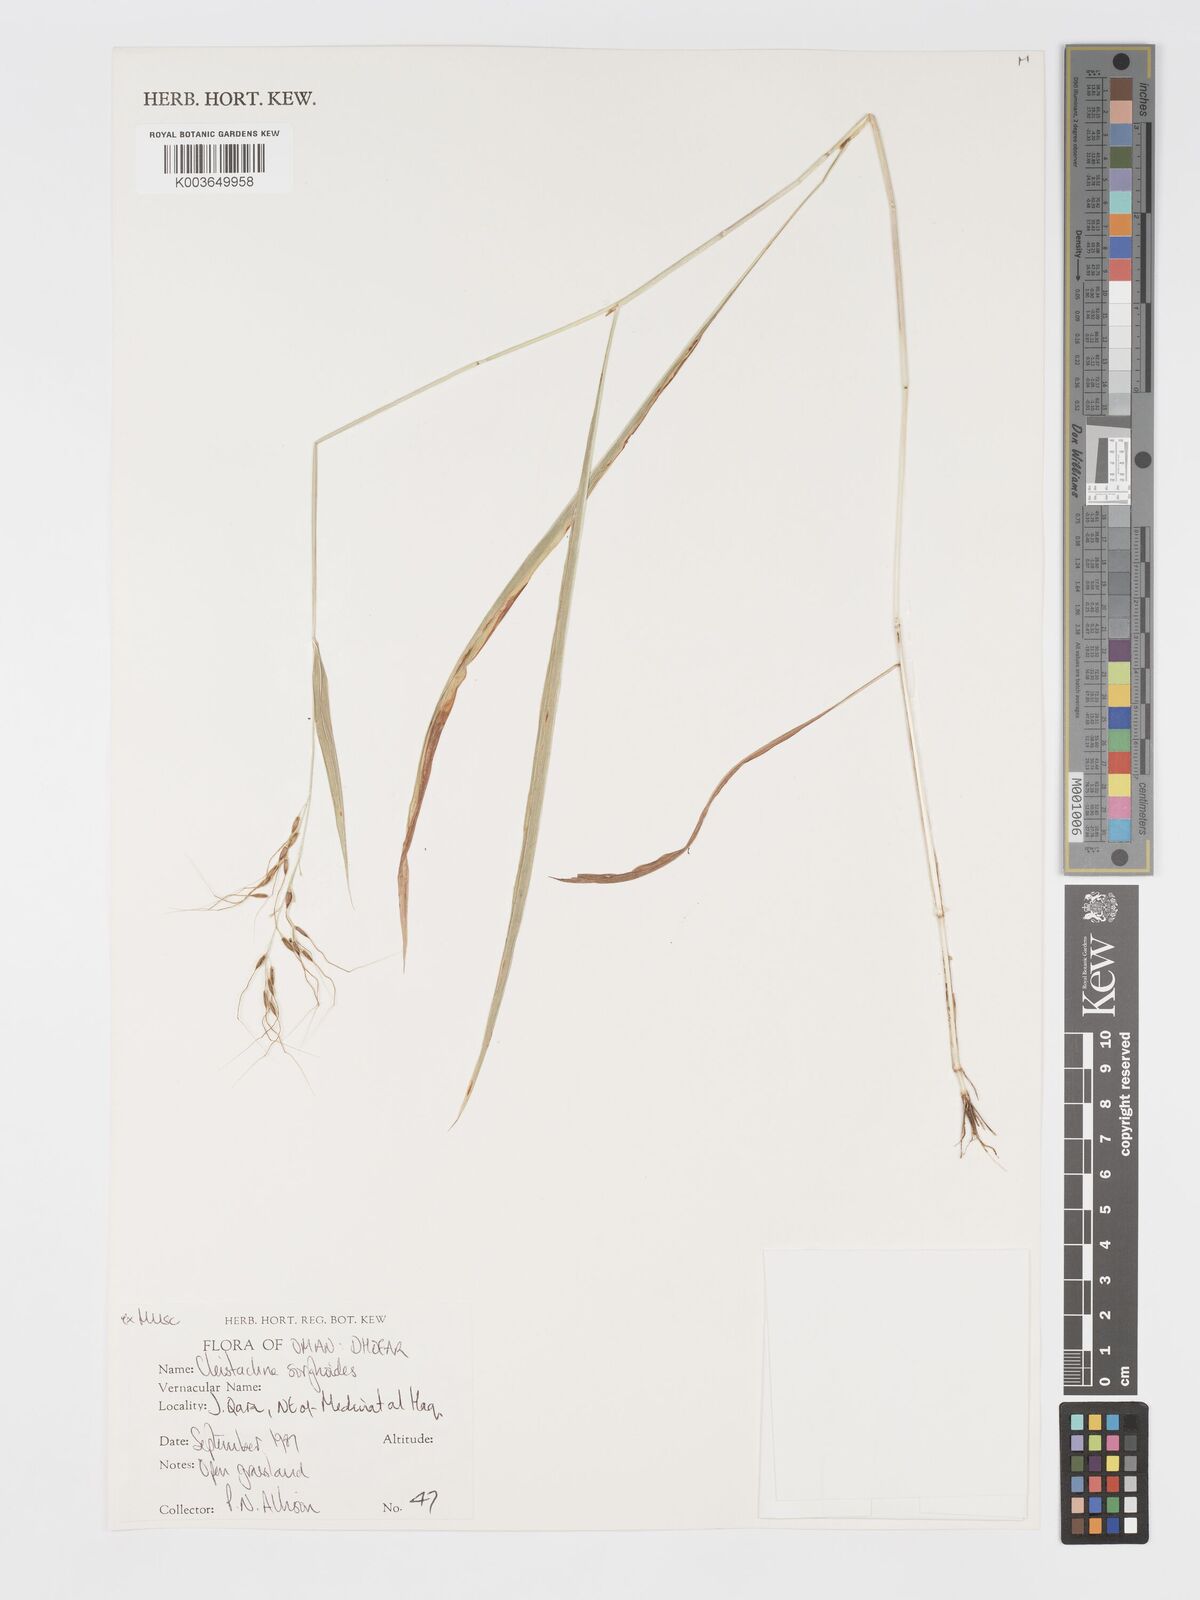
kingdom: Plantae
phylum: Tracheophyta
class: Liliopsida
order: Poales
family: Poaceae
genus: Cleistachne
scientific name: Cleistachne sorghoides
